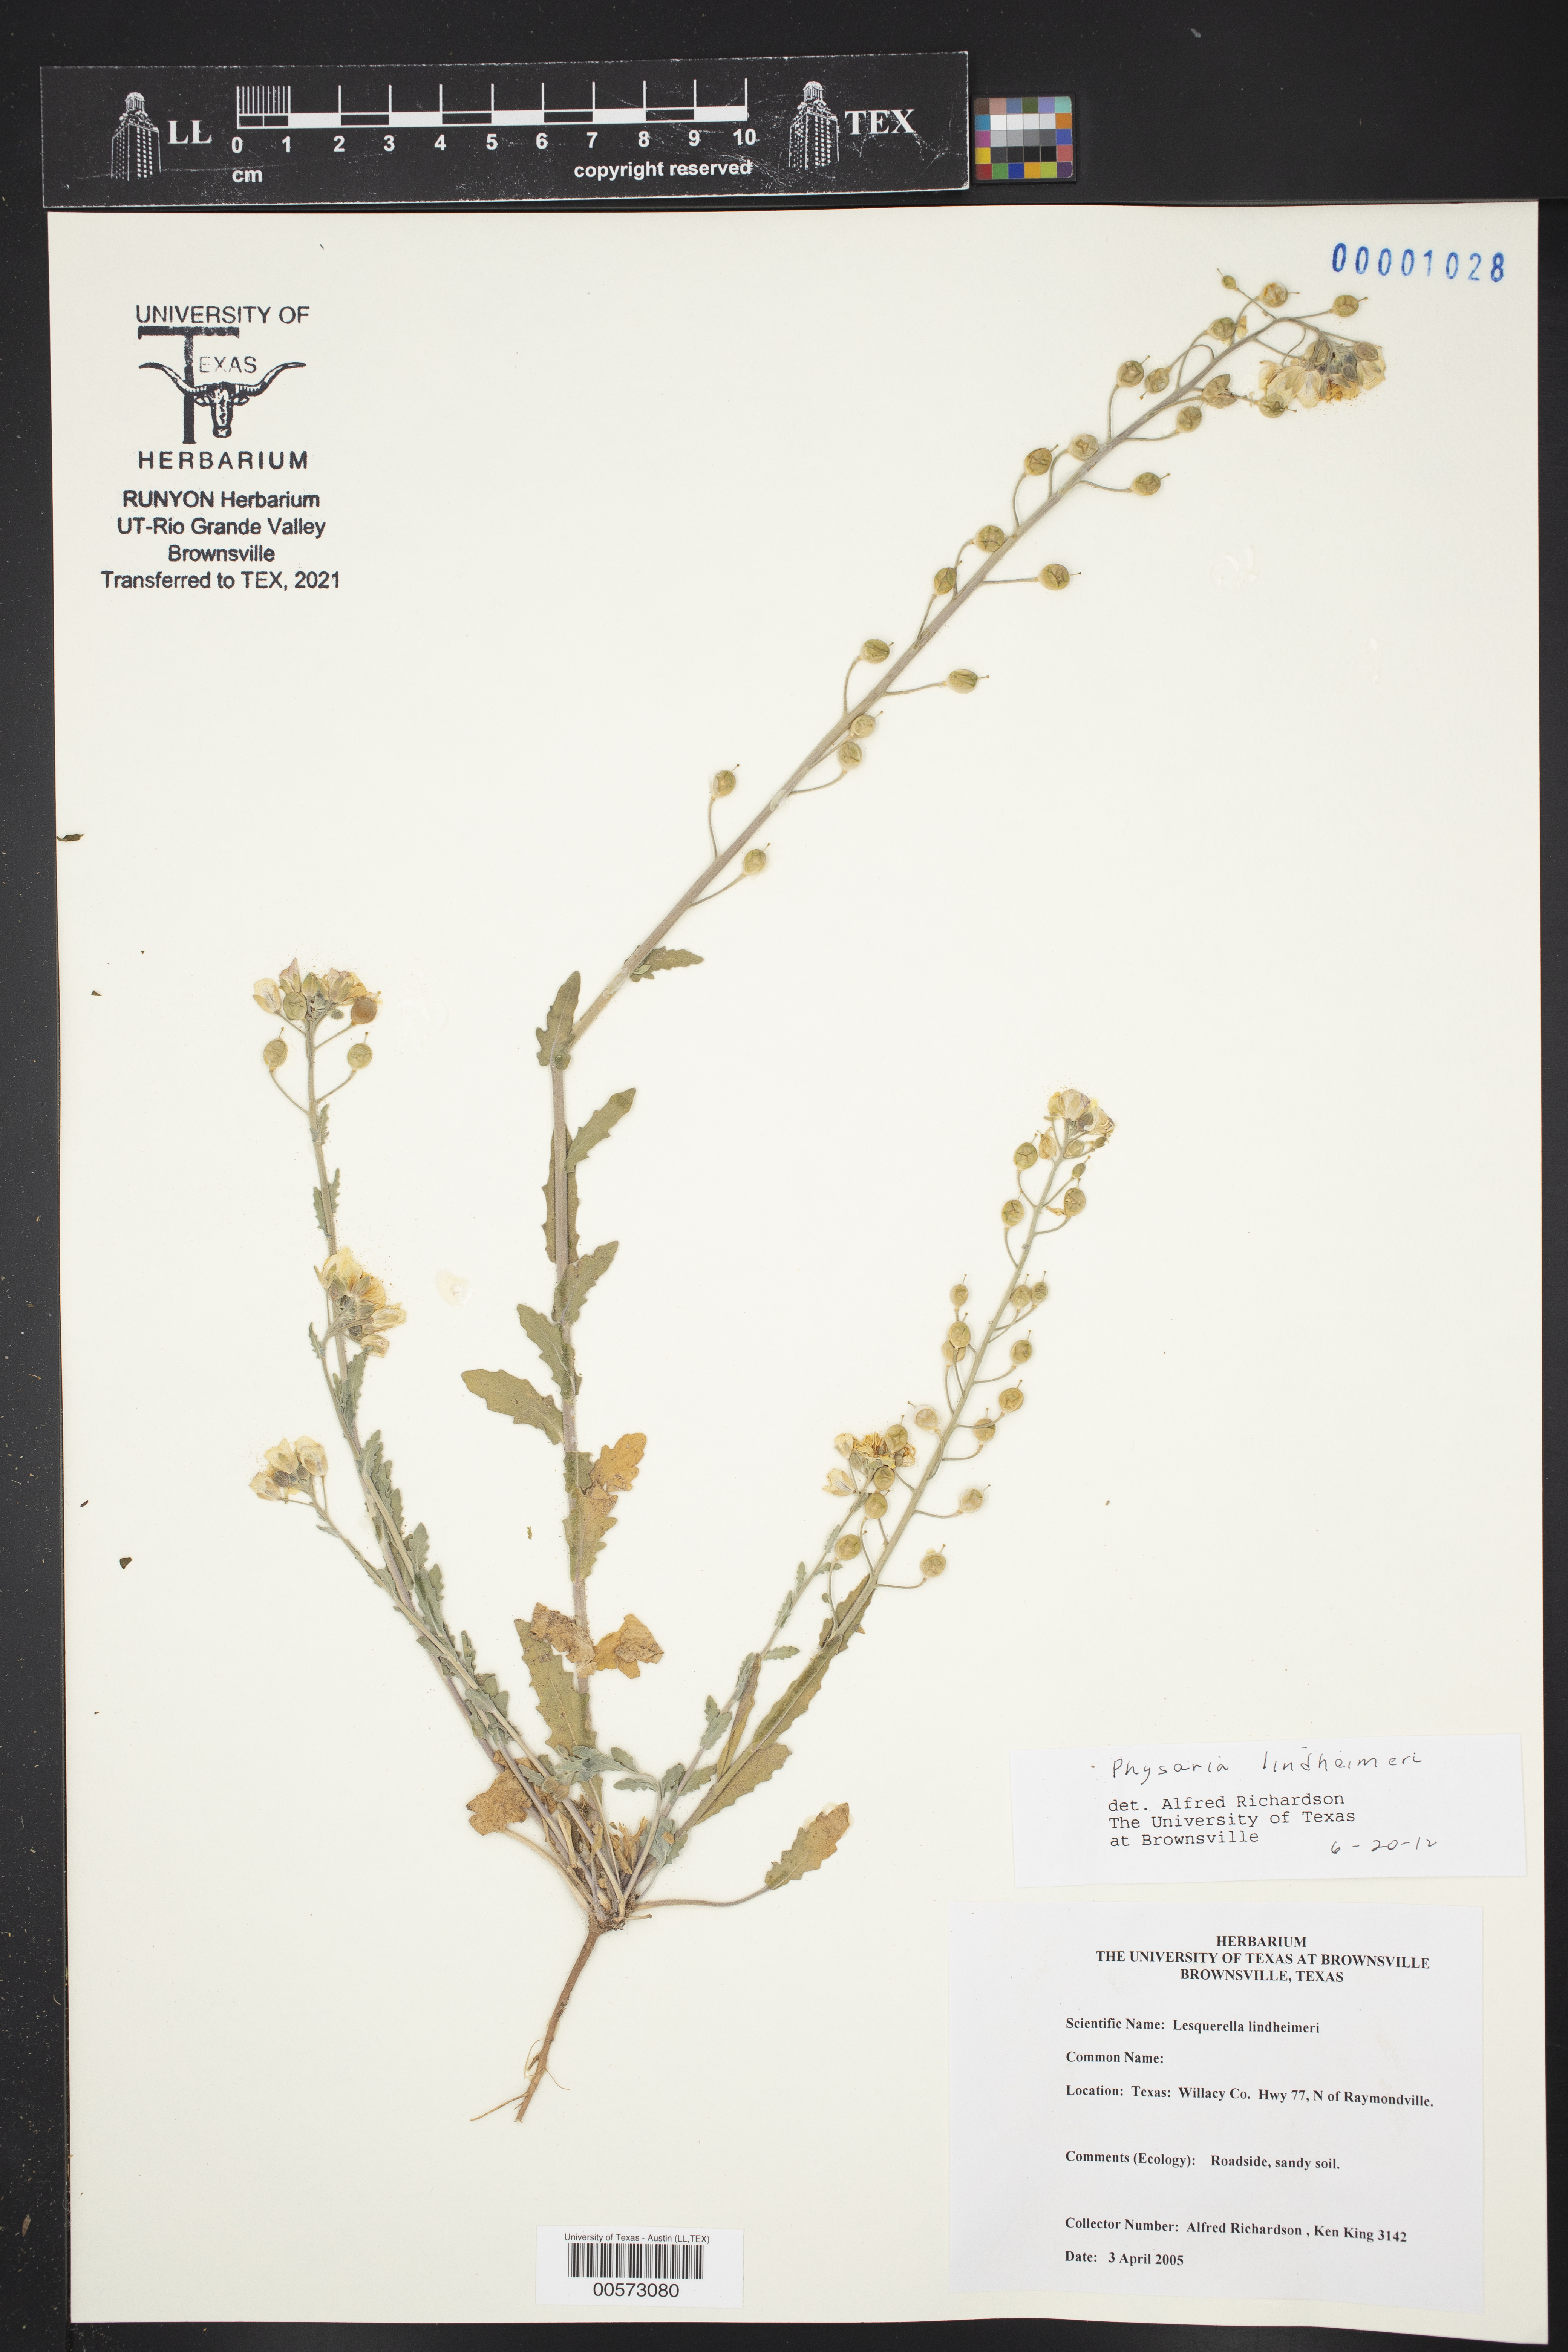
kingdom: Plantae
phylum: Tracheophyta
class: Magnoliopsida
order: Brassicales
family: Brassicaceae
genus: Physaria
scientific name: Physaria lindheimeri
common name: Lindheimer's bladderpod
